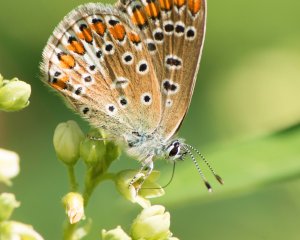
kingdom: Animalia
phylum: Arthropoda
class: Insecta
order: Lepidoptera
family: Lycaenidae
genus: Polyommatus
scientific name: Polyommatus icarus
